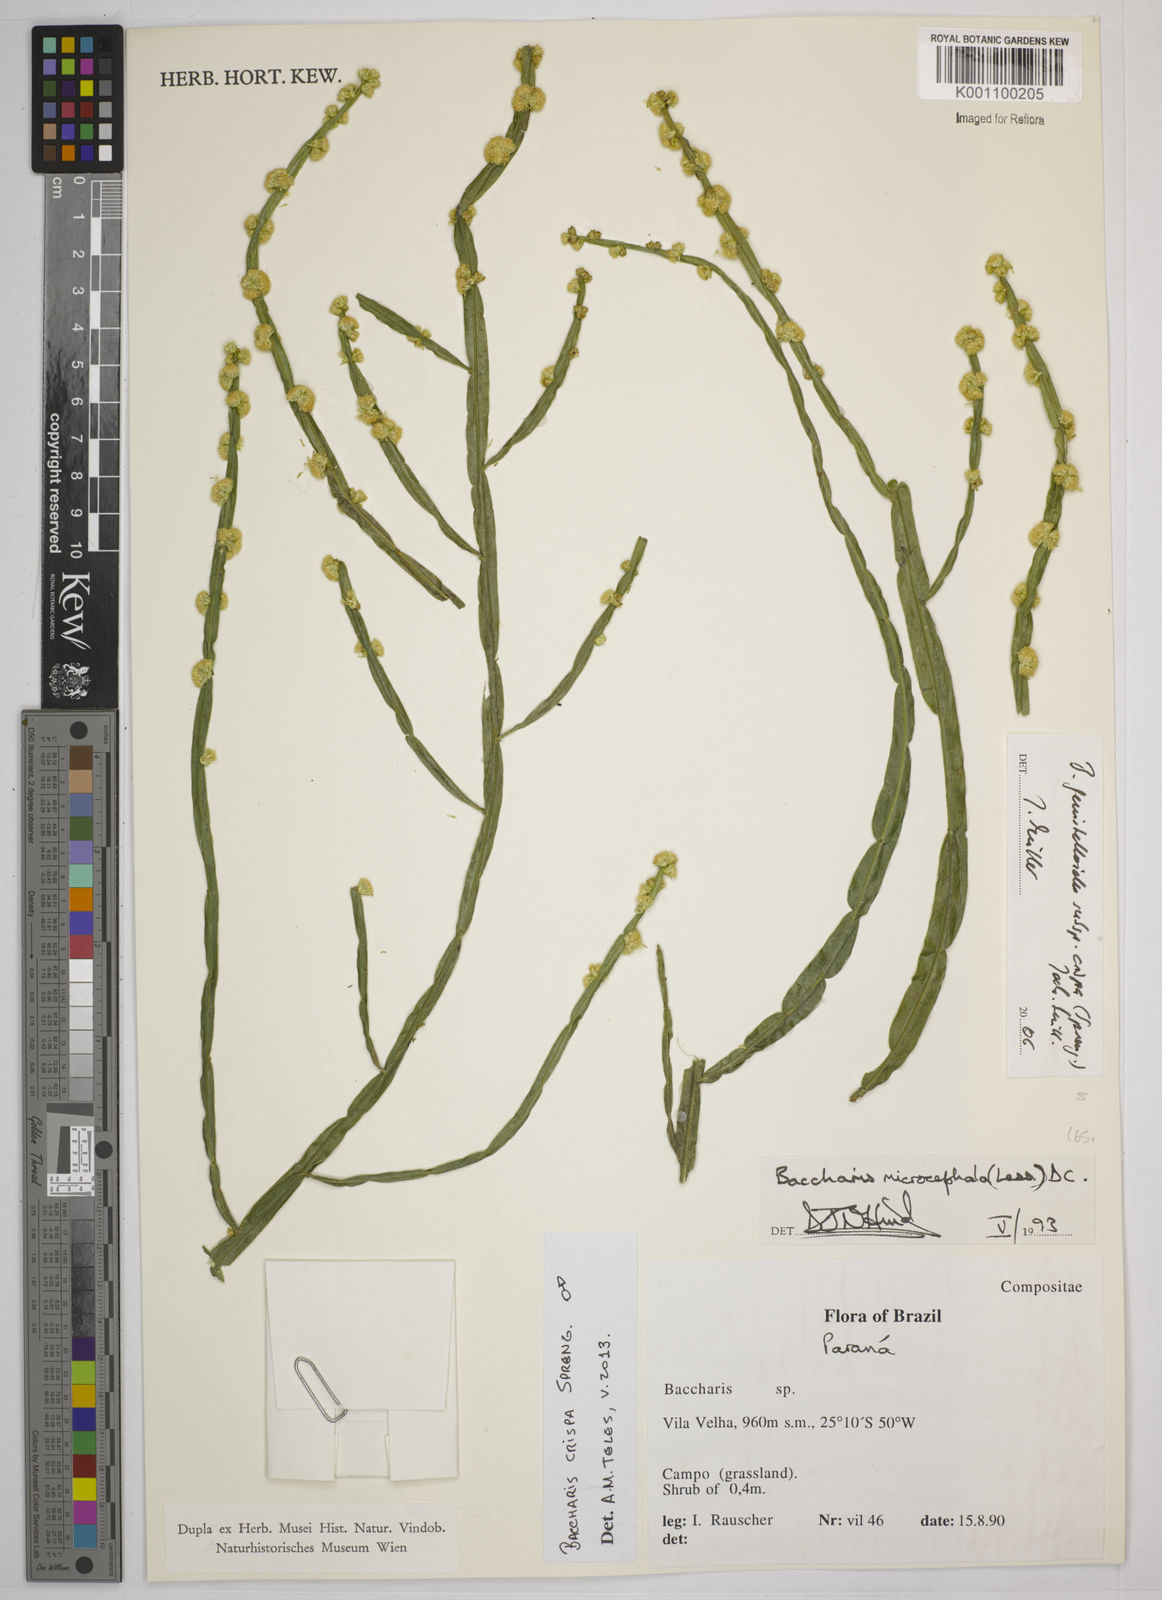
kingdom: Plantae
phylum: Tracheophyta
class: Magnoliopsida
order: Asterales
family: Asteraceae
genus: Baccharis
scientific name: Baccharis crispa
